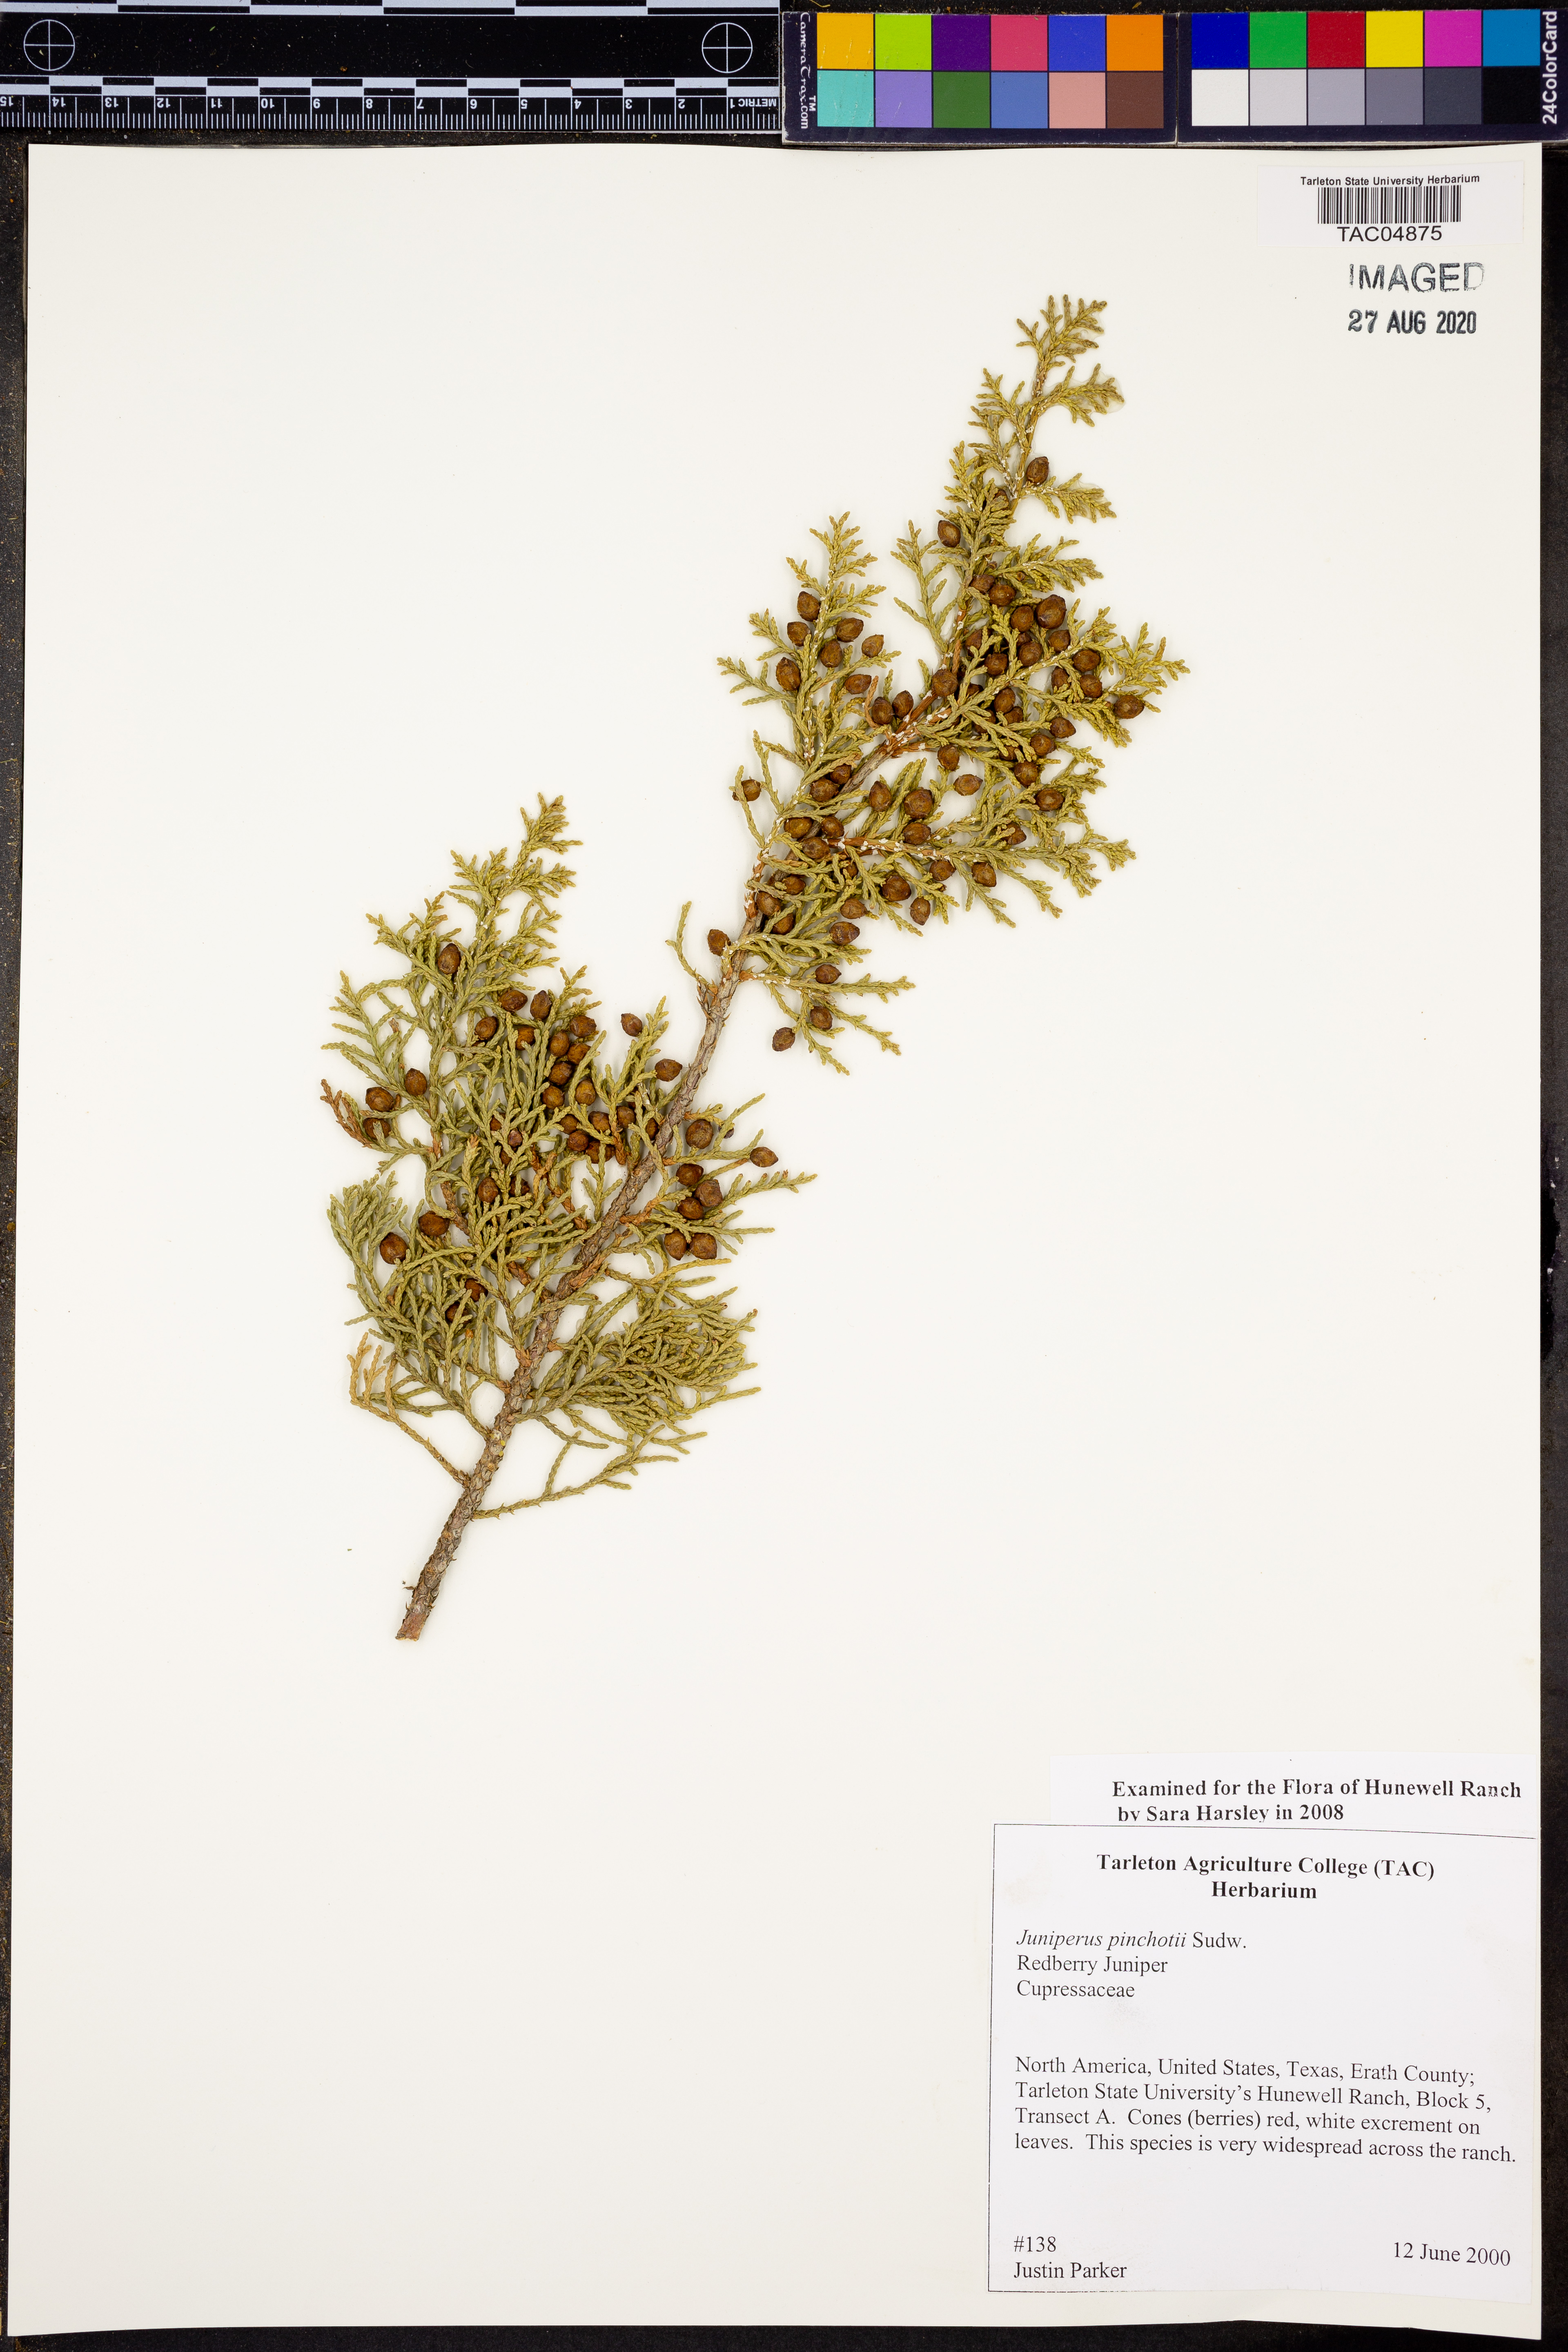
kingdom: Plantae
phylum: Tracheophyta
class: Pinopsida
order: Pinales
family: Cupressaceae
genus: Juniperus
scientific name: Juniperus pinchotii
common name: Pinchot juniper
